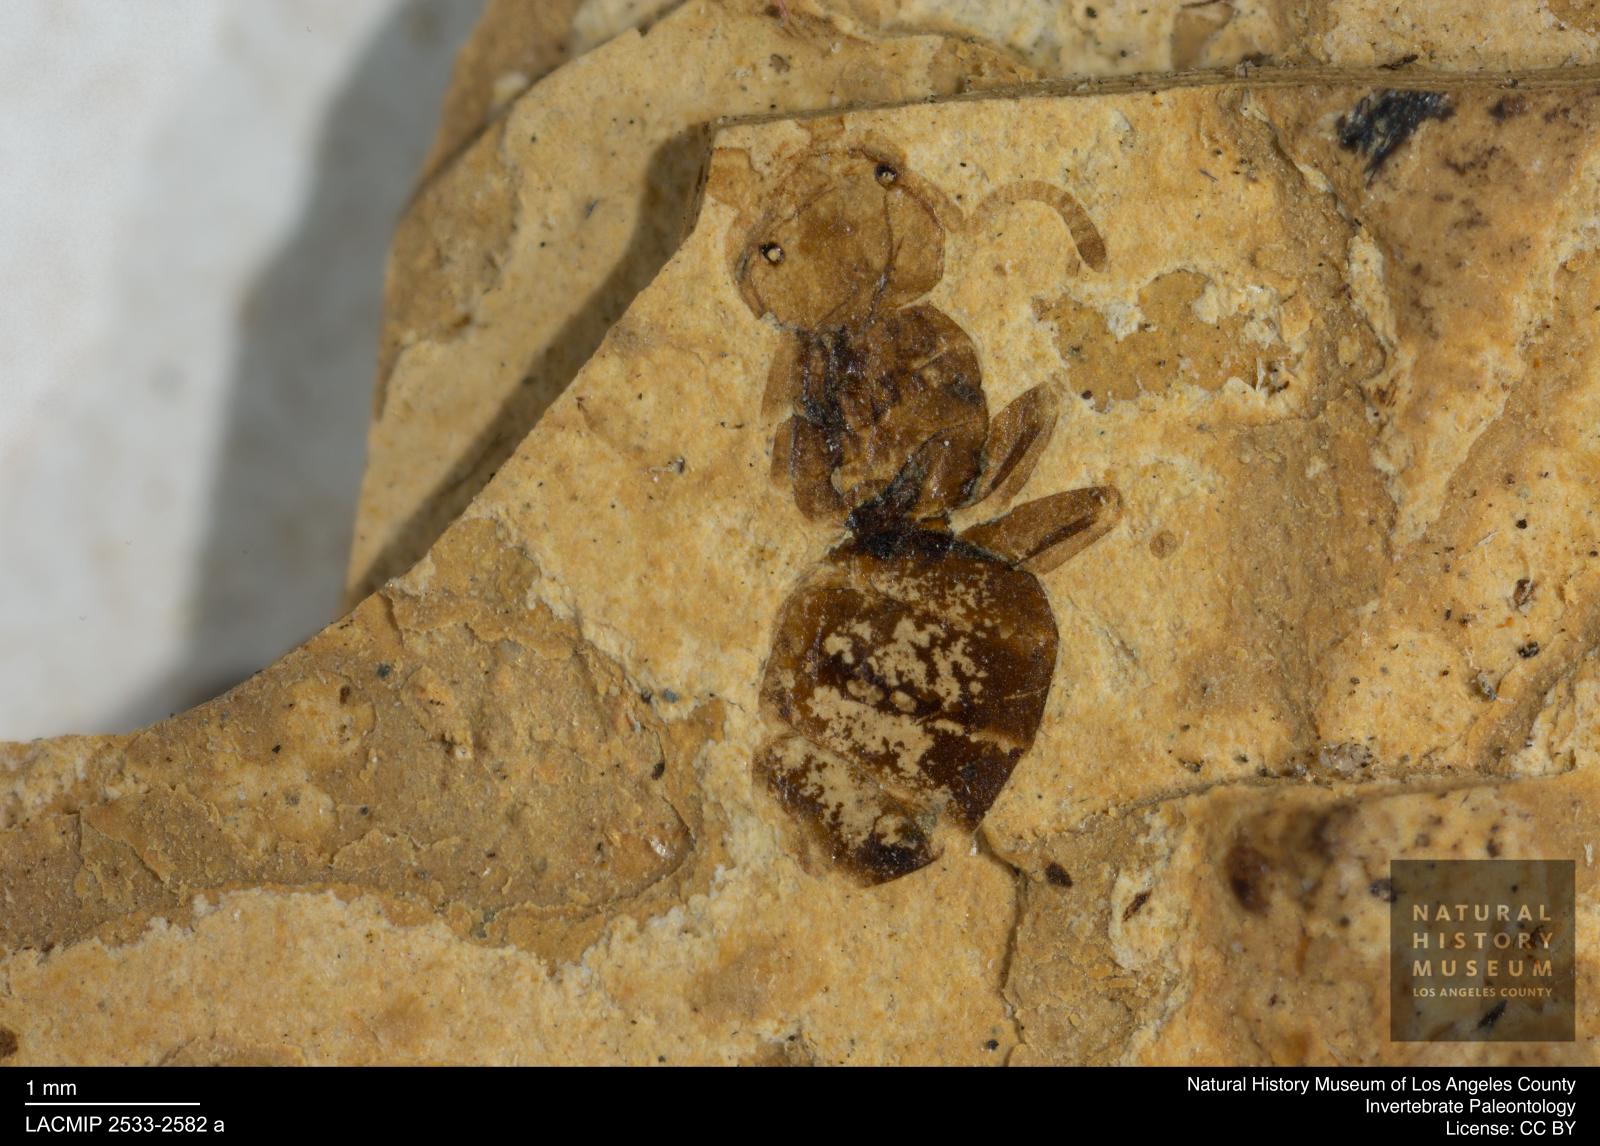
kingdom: Animalia
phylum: Arthropoda
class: Insecta
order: Hymenoptera
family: Formicidae
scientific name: Formicidae
